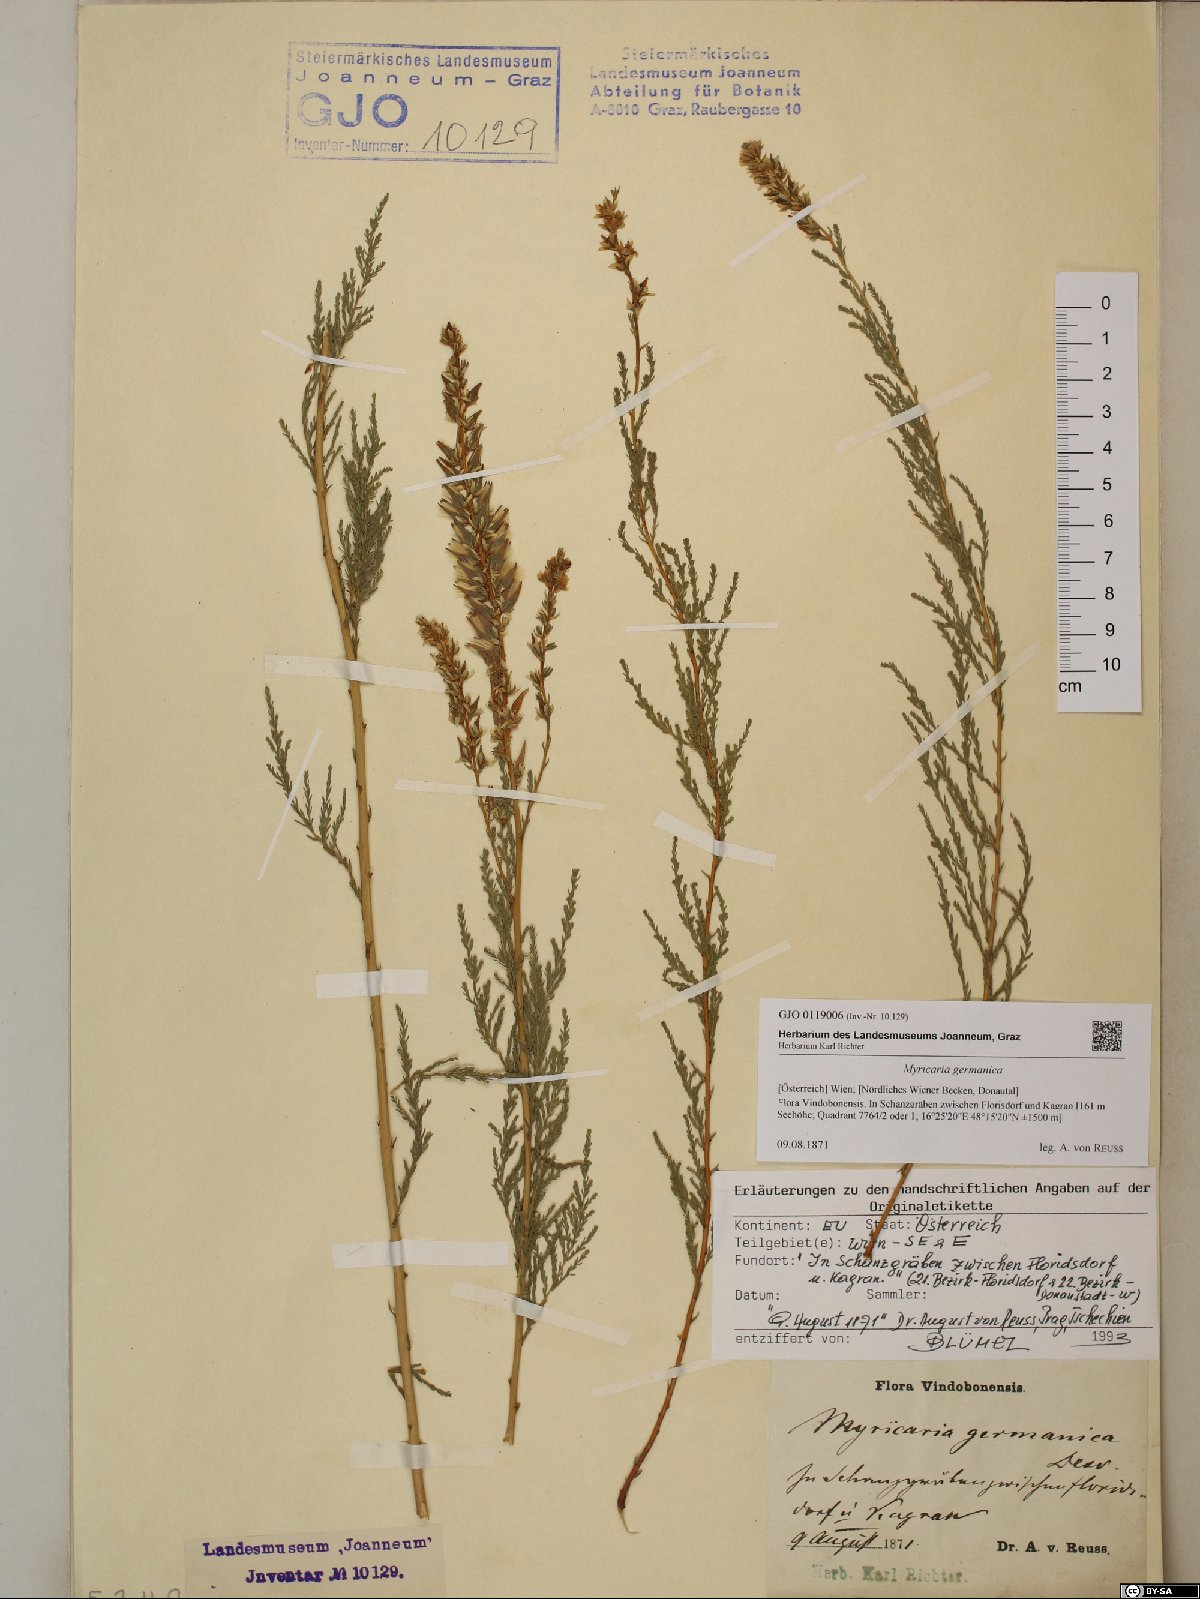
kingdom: Plantae
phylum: Tracheophyta
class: Magnoliopsida
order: Caryophyllales
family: Tamaricaceae
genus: Myricaria
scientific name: Myricaria germanica
